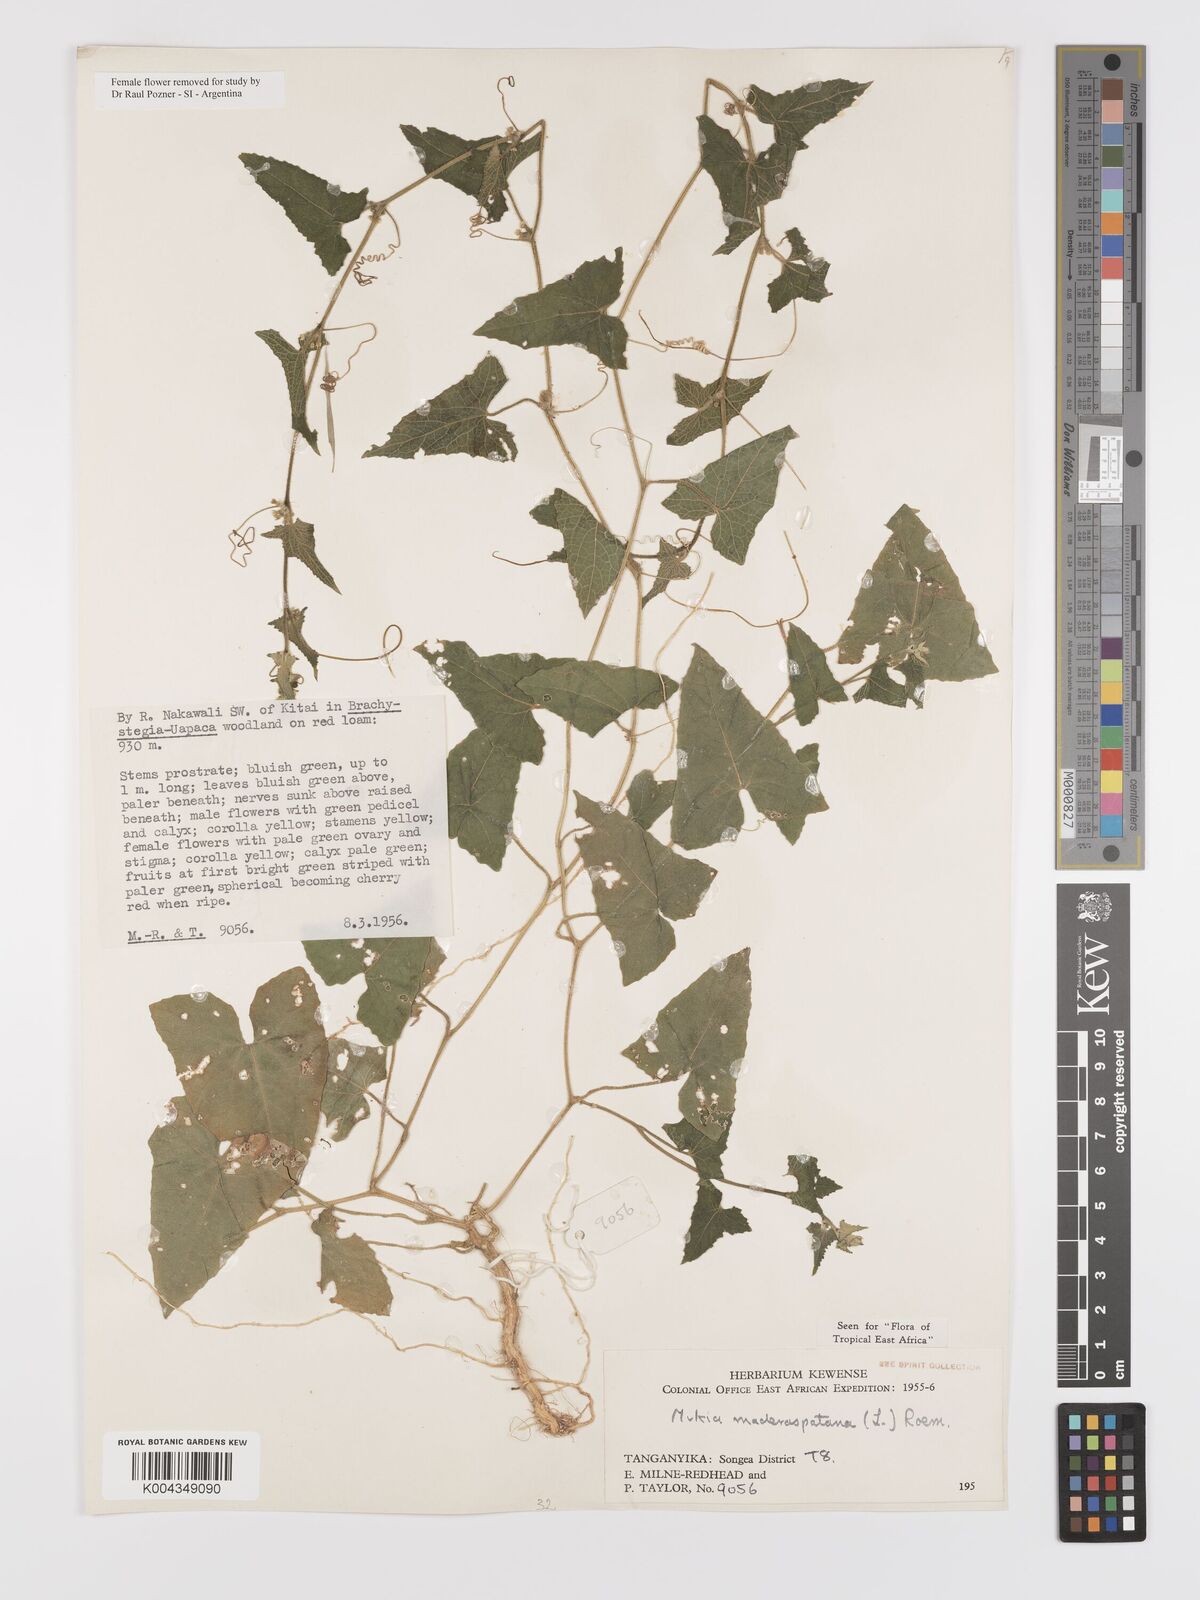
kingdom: Plantae
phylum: Tracheophyta
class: Magnoliopsida
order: Cucurbitales
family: Cucurbitaceae
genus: Cucumis
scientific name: Cucumis maderaspatanus
